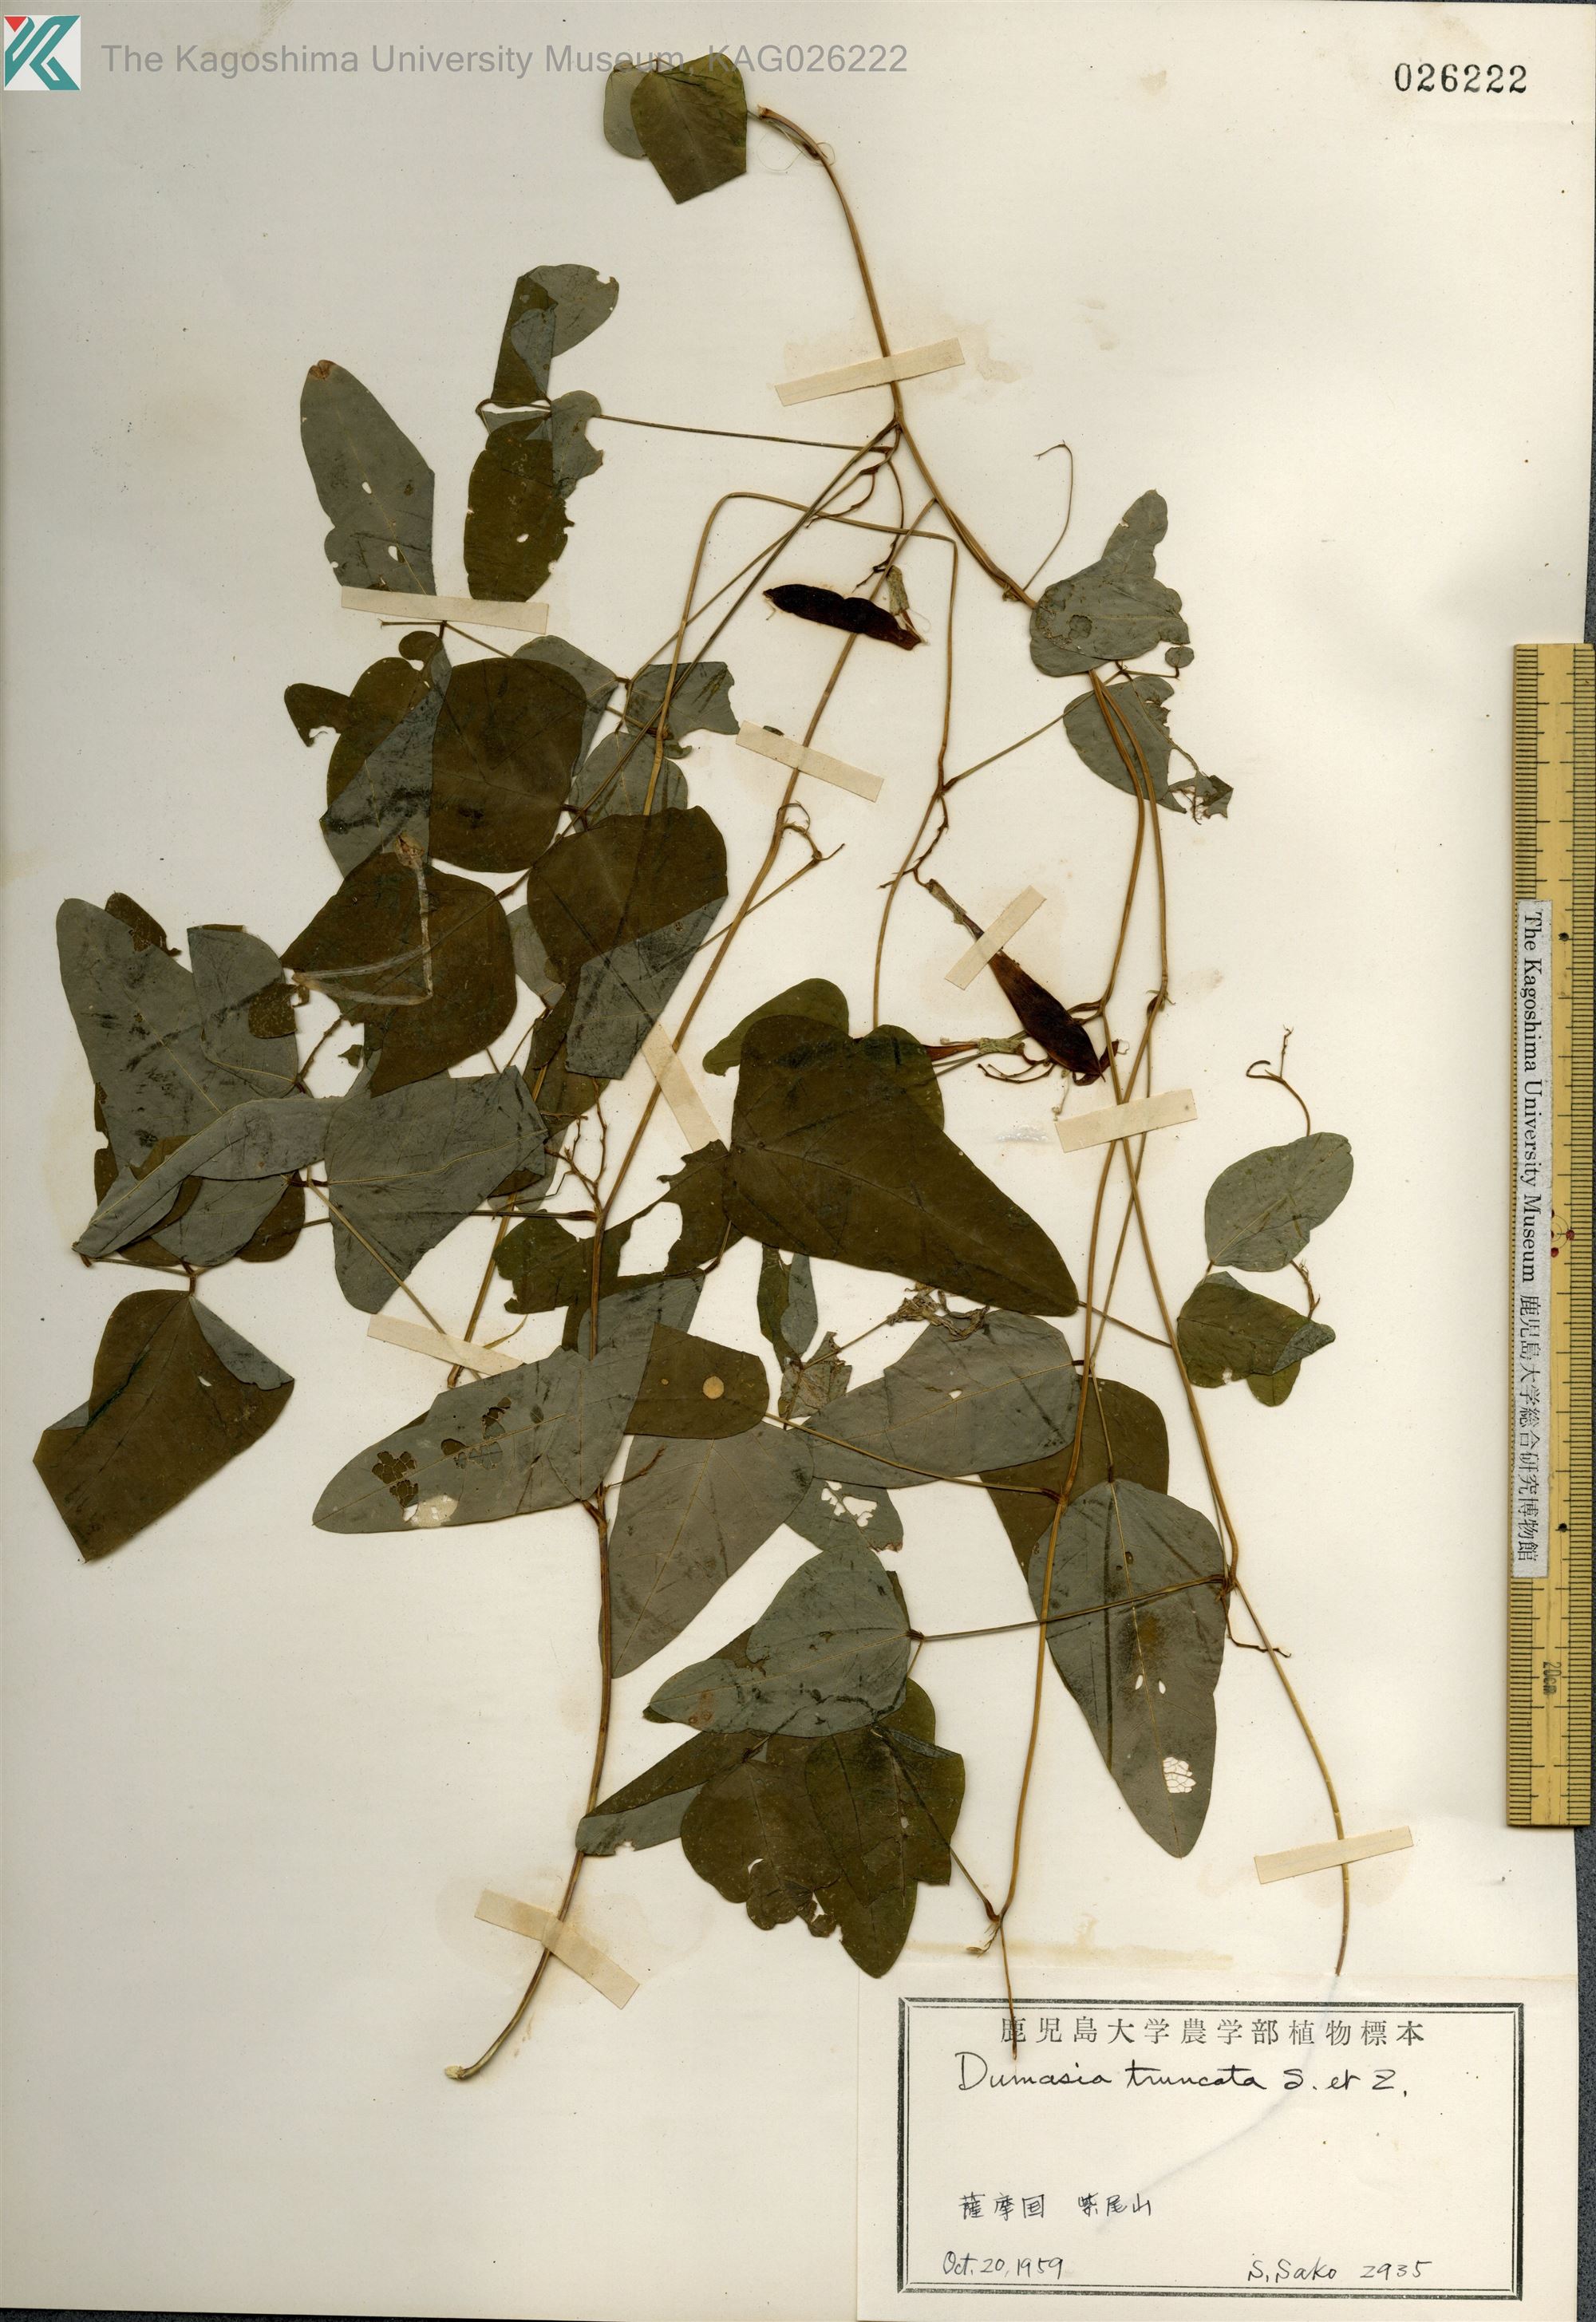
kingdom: Plantae
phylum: Tracheophyta
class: Magnoliopsida
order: Fabales
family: Fabaceae
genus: Dumasia
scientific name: Dumasia truncata
